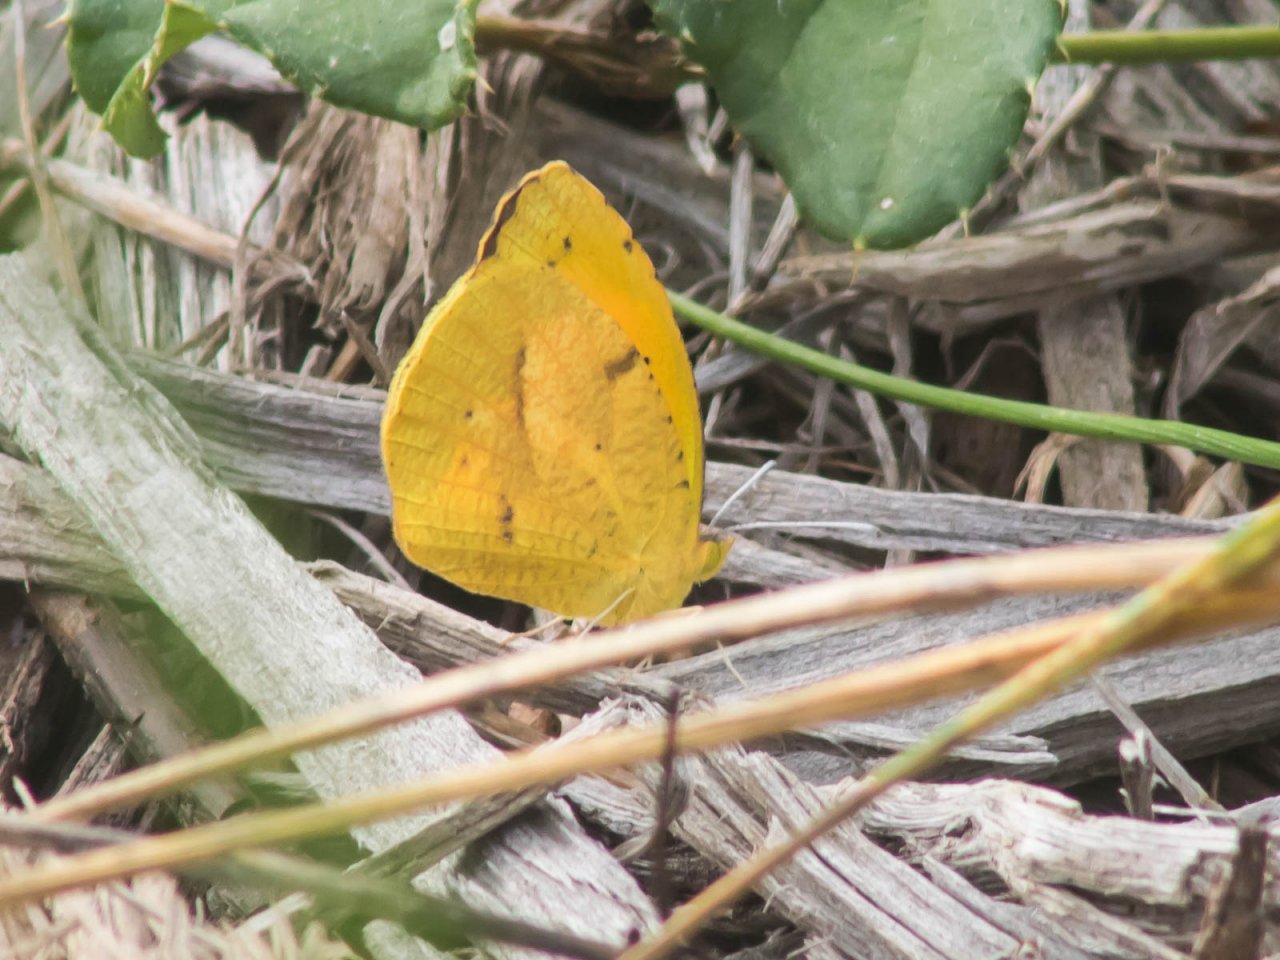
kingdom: Animalia
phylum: Arthropoda
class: Insecta
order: Lepidoptera
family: Pieridae
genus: Abaeis
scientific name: Abaeis nicippe
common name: Sleepy Orange
